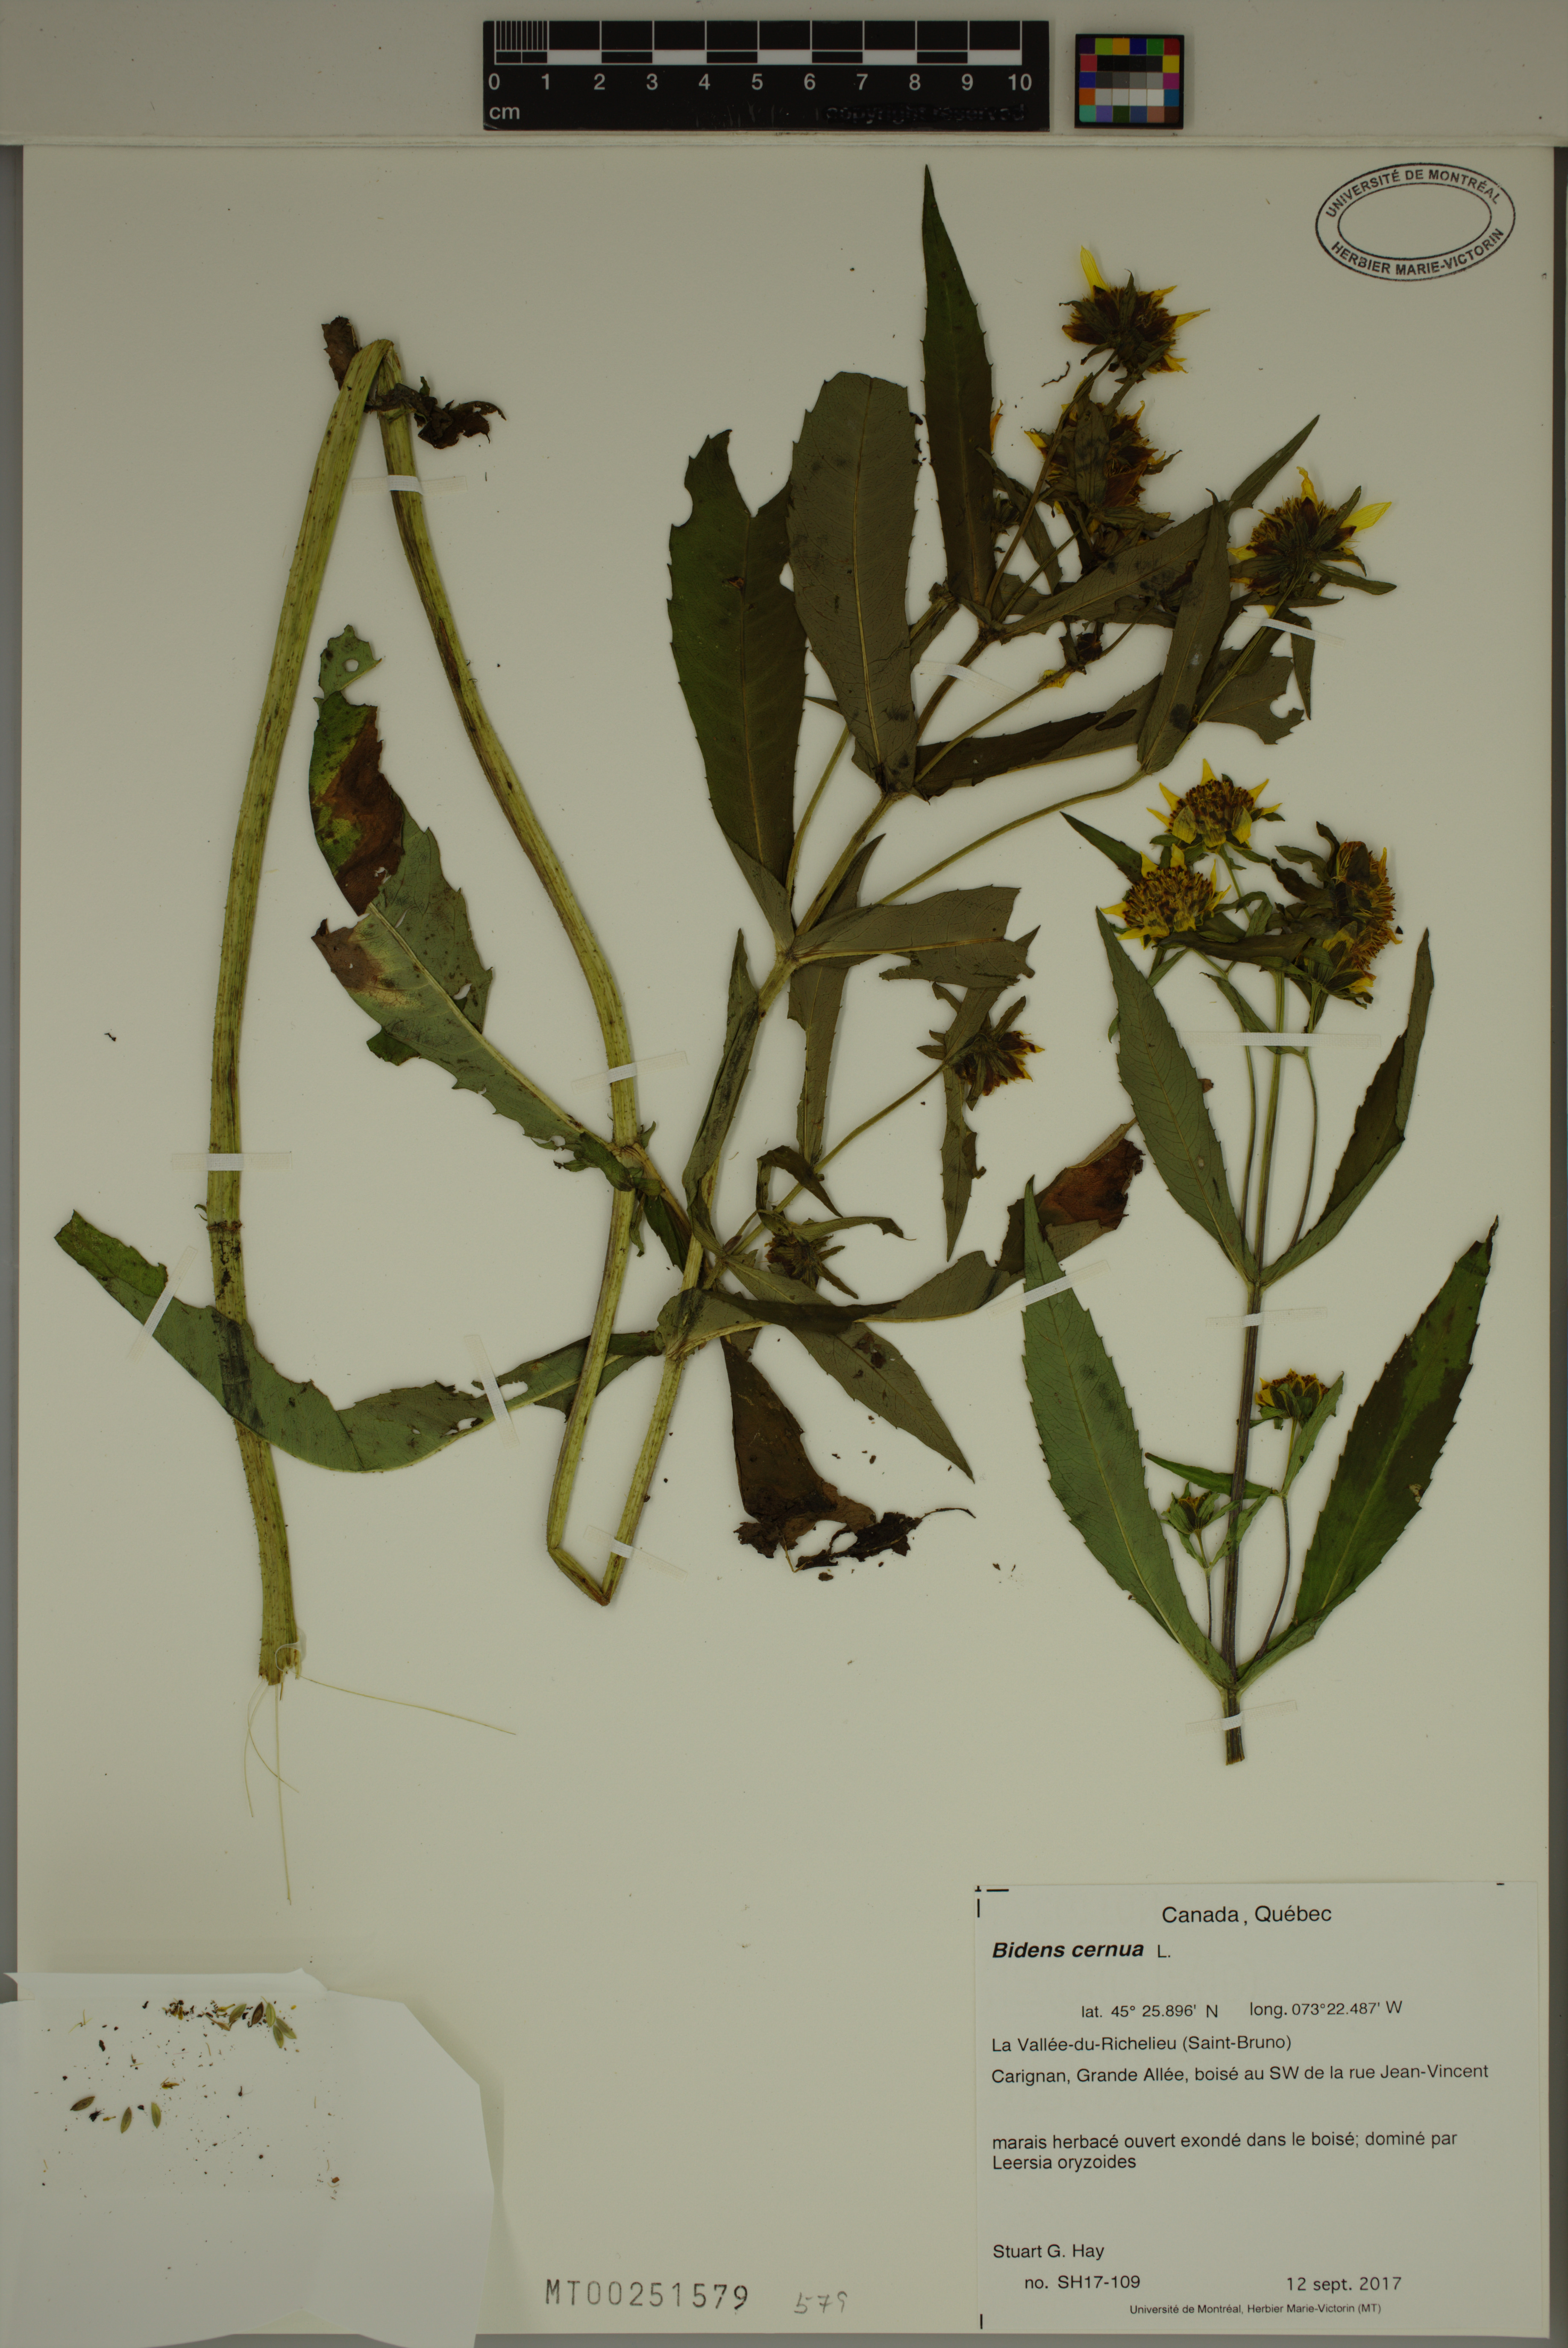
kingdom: Plantae
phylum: Tracheophyta
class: Magnoliopsida
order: Asterales
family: Asteraceae
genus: Bidens
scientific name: Bidens cernua
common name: Nodding bur-marigold
